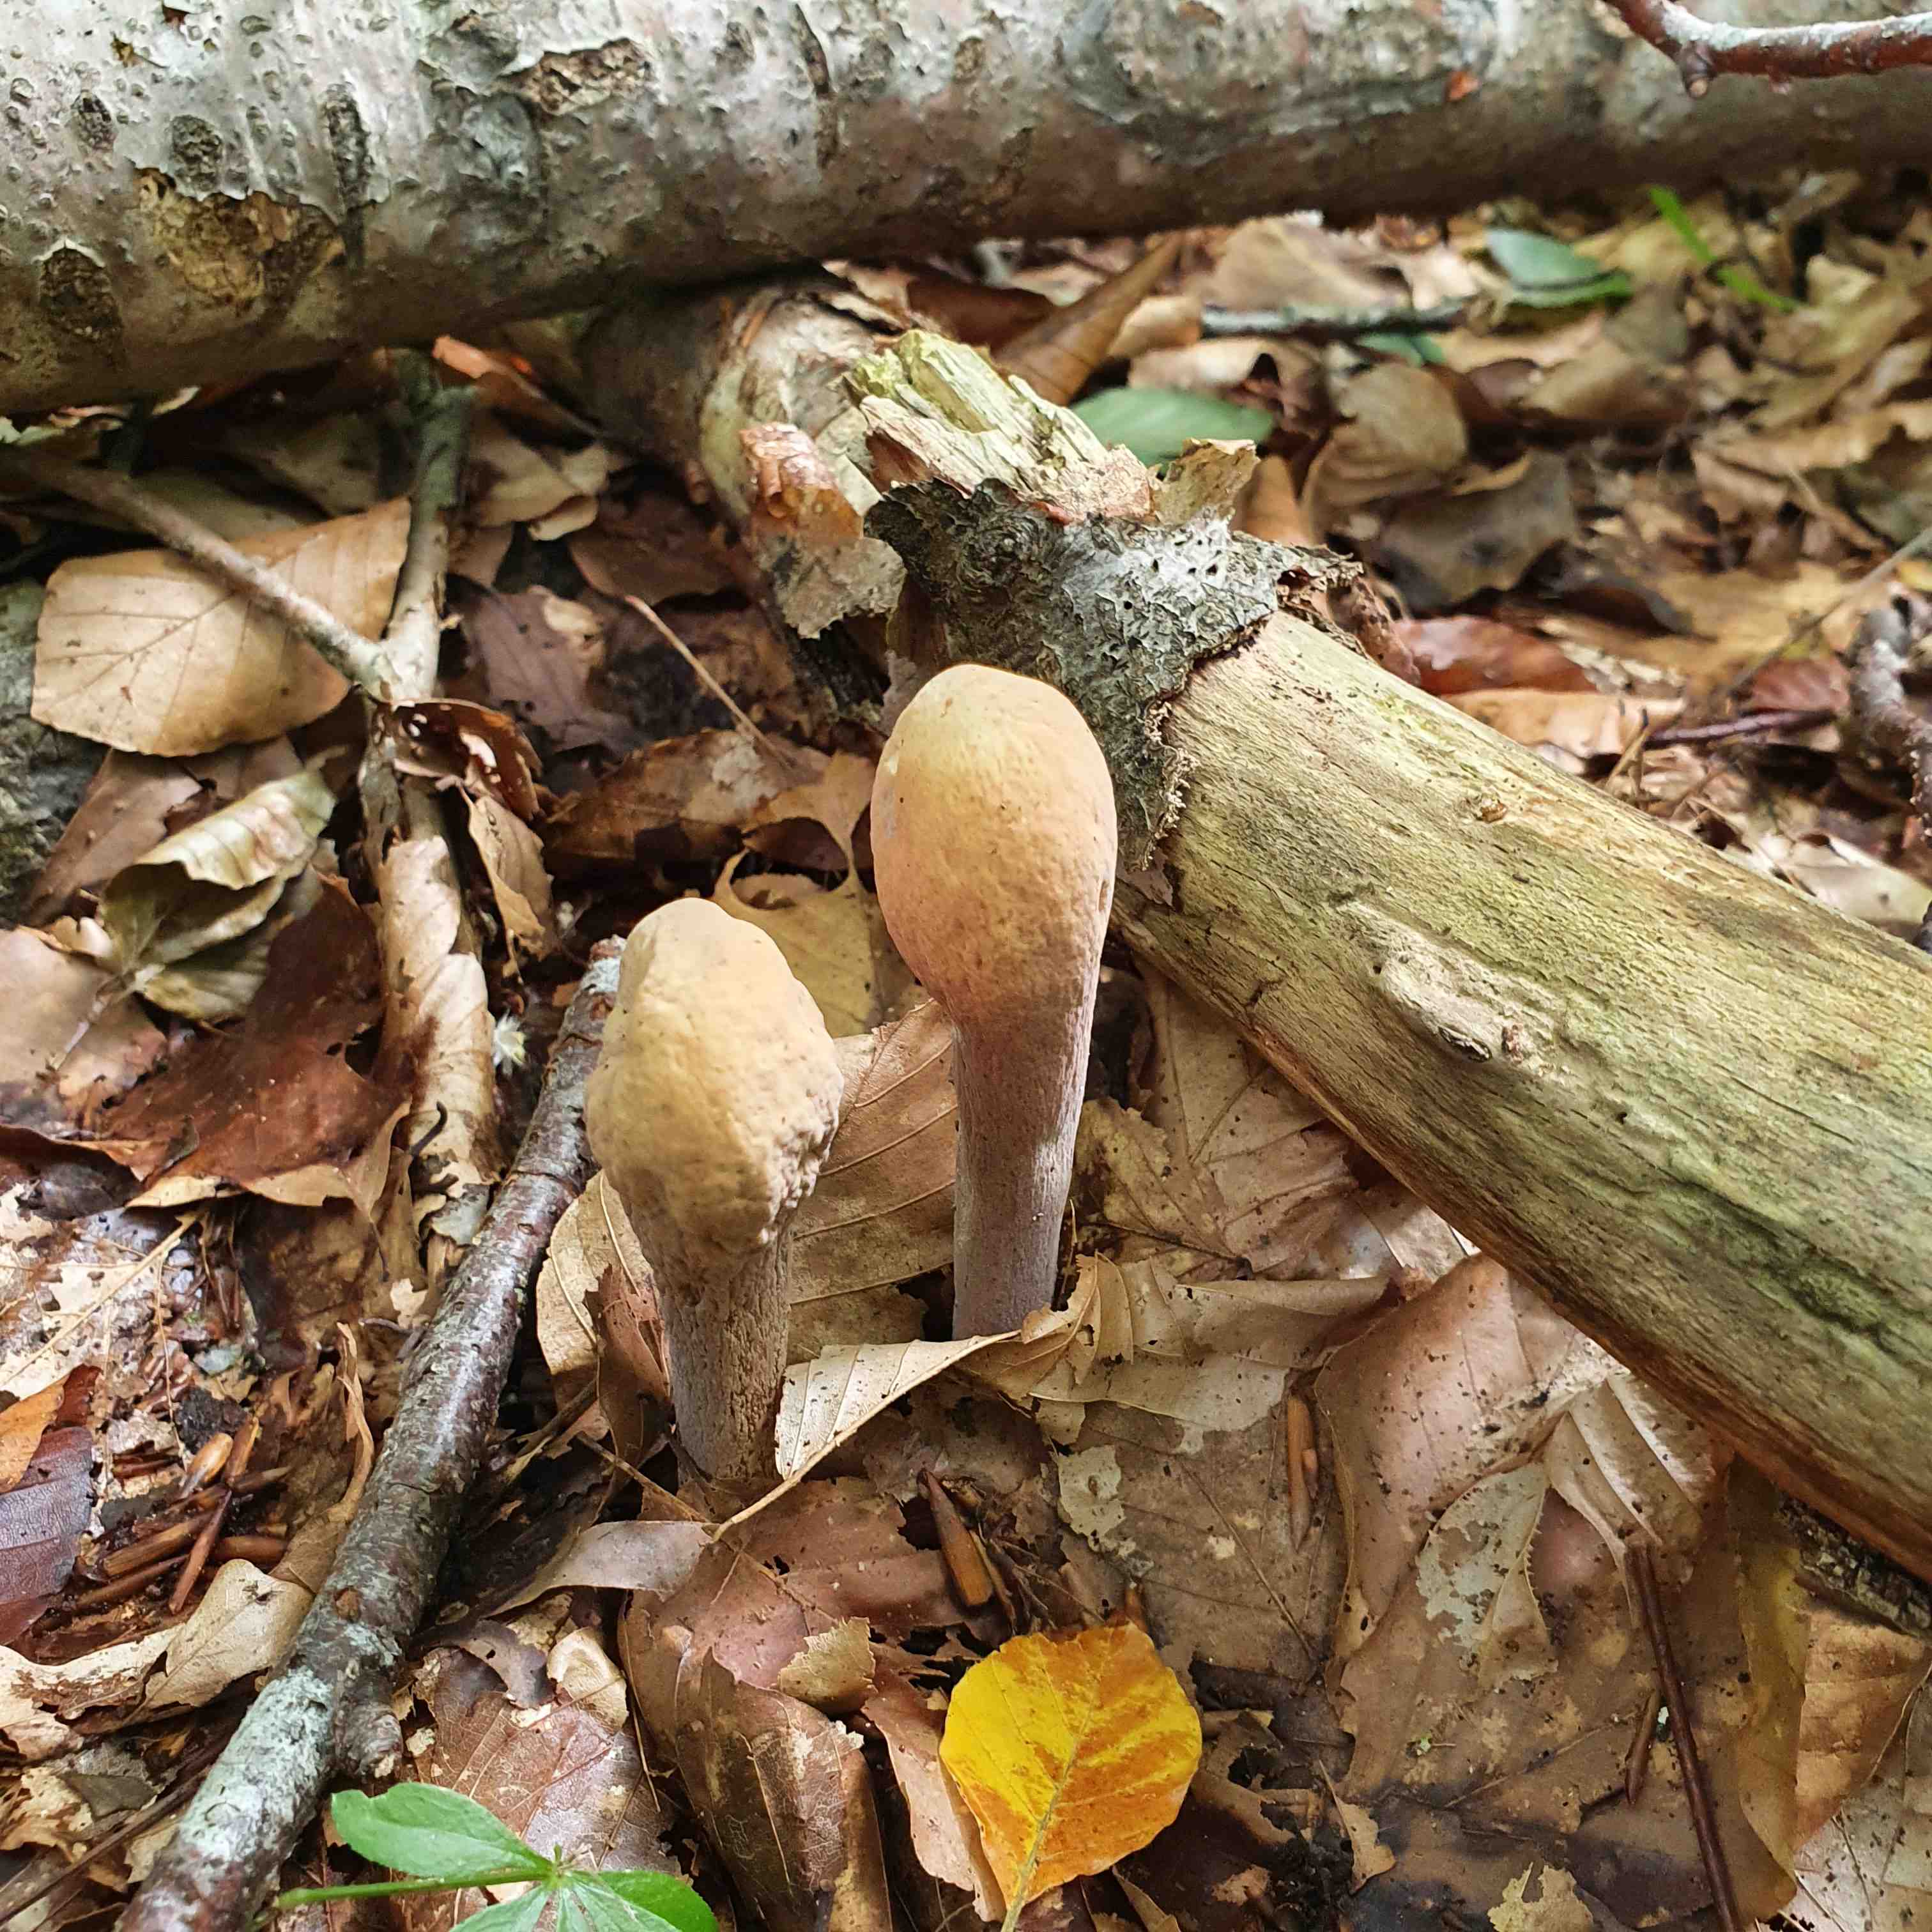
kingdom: Fungi
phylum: Basidiomycota
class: Agaricomycetes
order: Gomphales
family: Clavariadelphaceae
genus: Clavariadelphus
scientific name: Clavariadelphus pistillaris
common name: herkules-kæmpekølle
